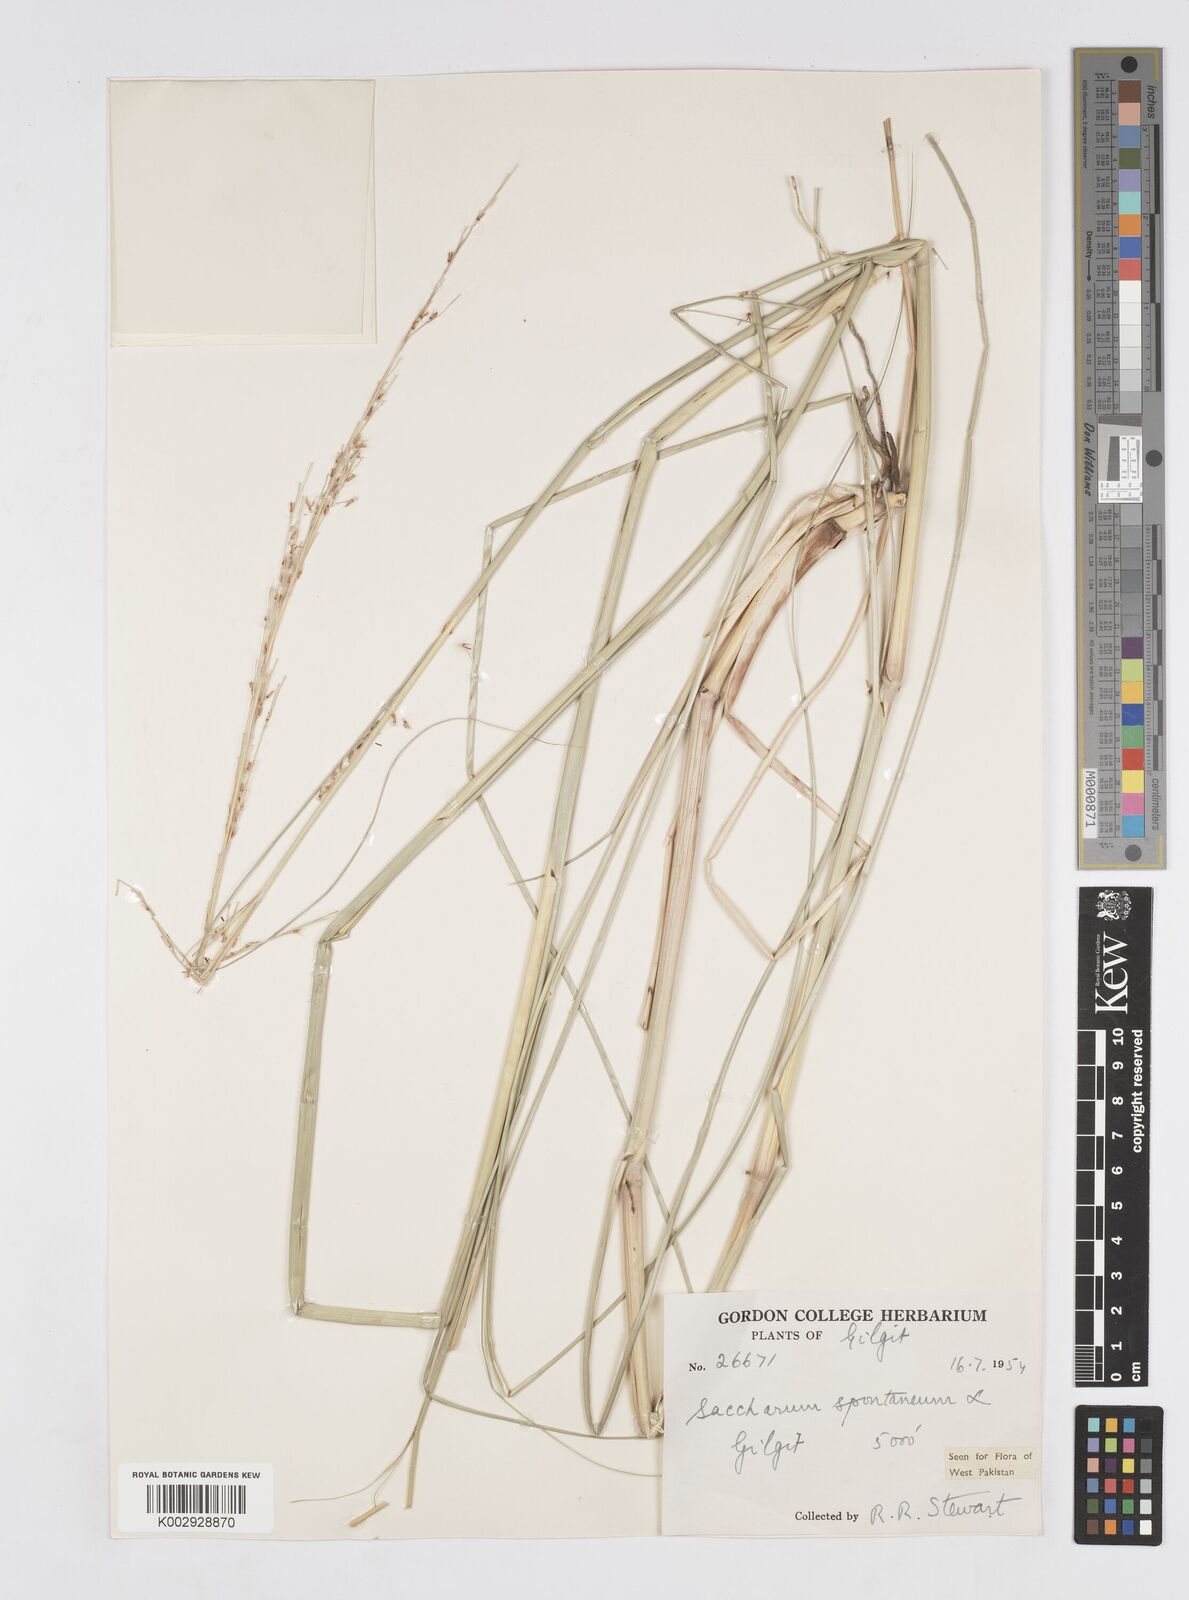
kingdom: Plantae
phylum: Tracheophyta
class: Liliopsida
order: Poales
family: Poaceae
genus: Saccharum
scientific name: Saccharum spontaneum
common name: Wild sugarcane
